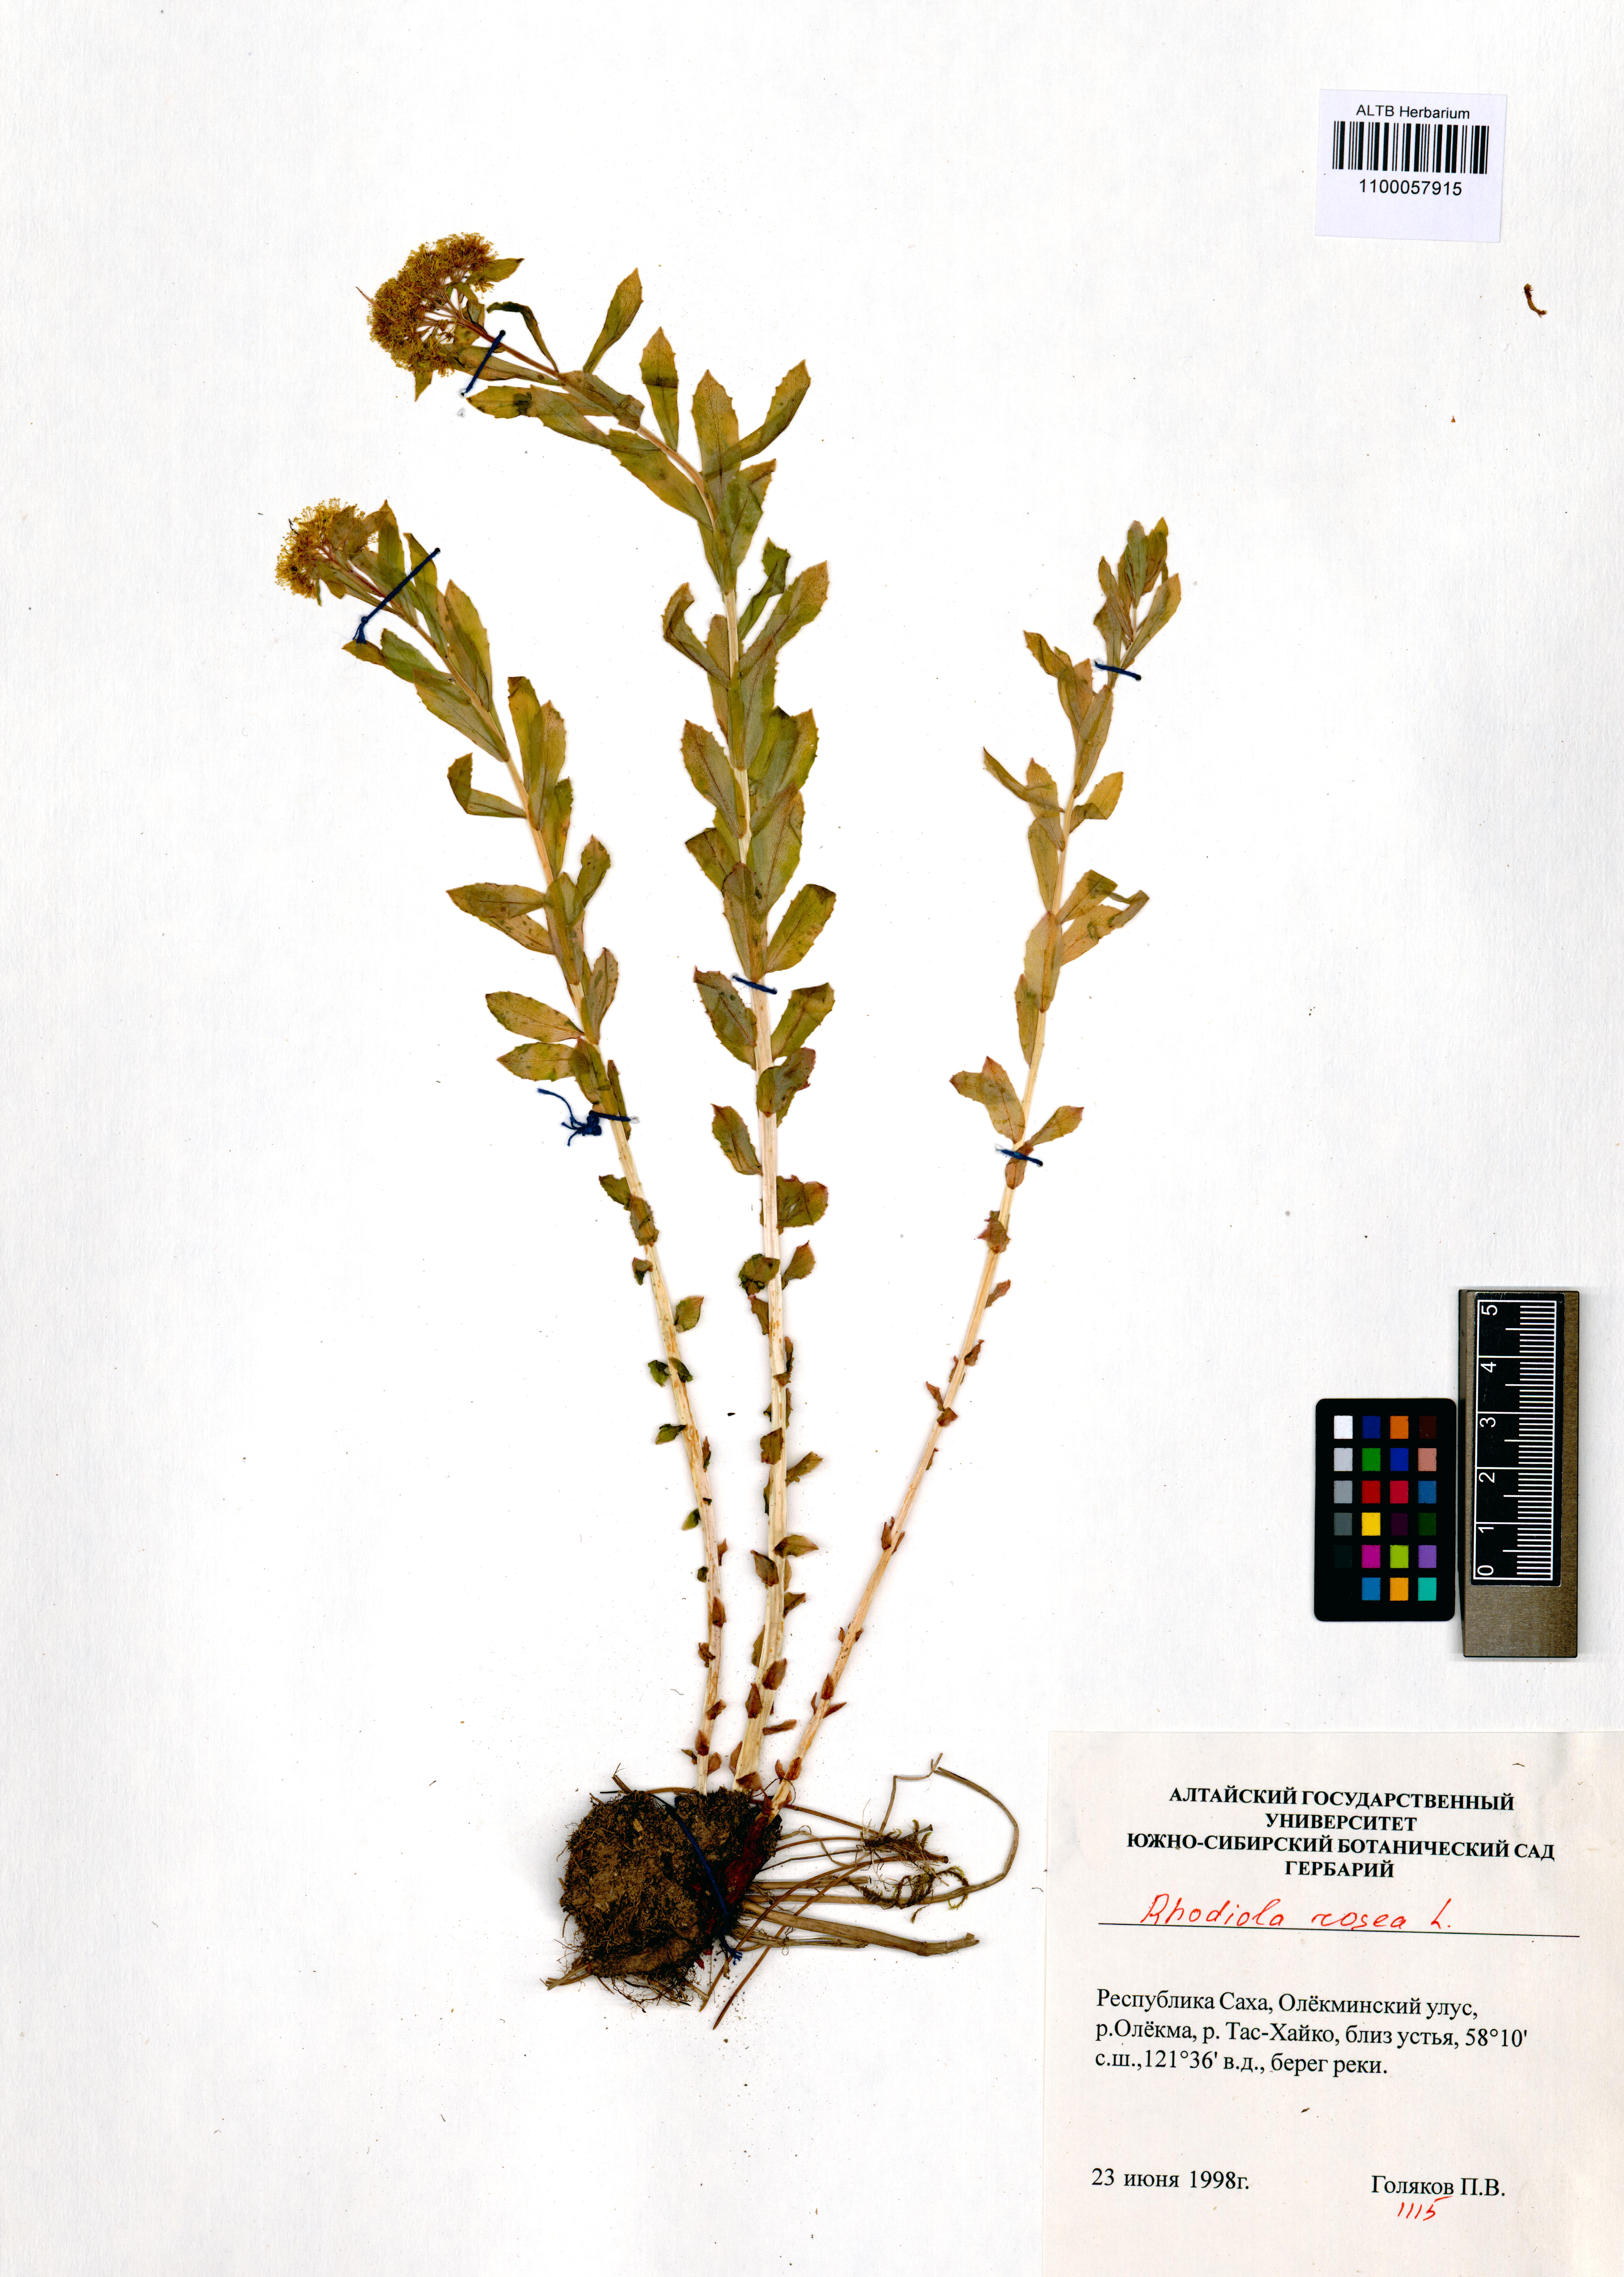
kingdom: Plantae
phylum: Tracheophyta
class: Magnoliopsida
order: Saxifragales
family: Crassulaceae
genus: Rhodiola
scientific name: Rhodiola rosea
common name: Roseroot
